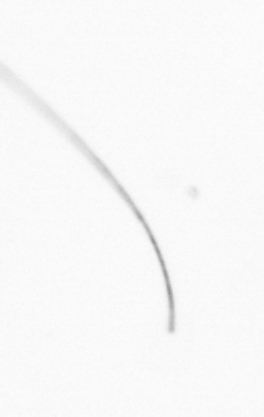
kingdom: Chromista
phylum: Ochrophyta
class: Bacillariophyceae
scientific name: Bacillariophyceae
